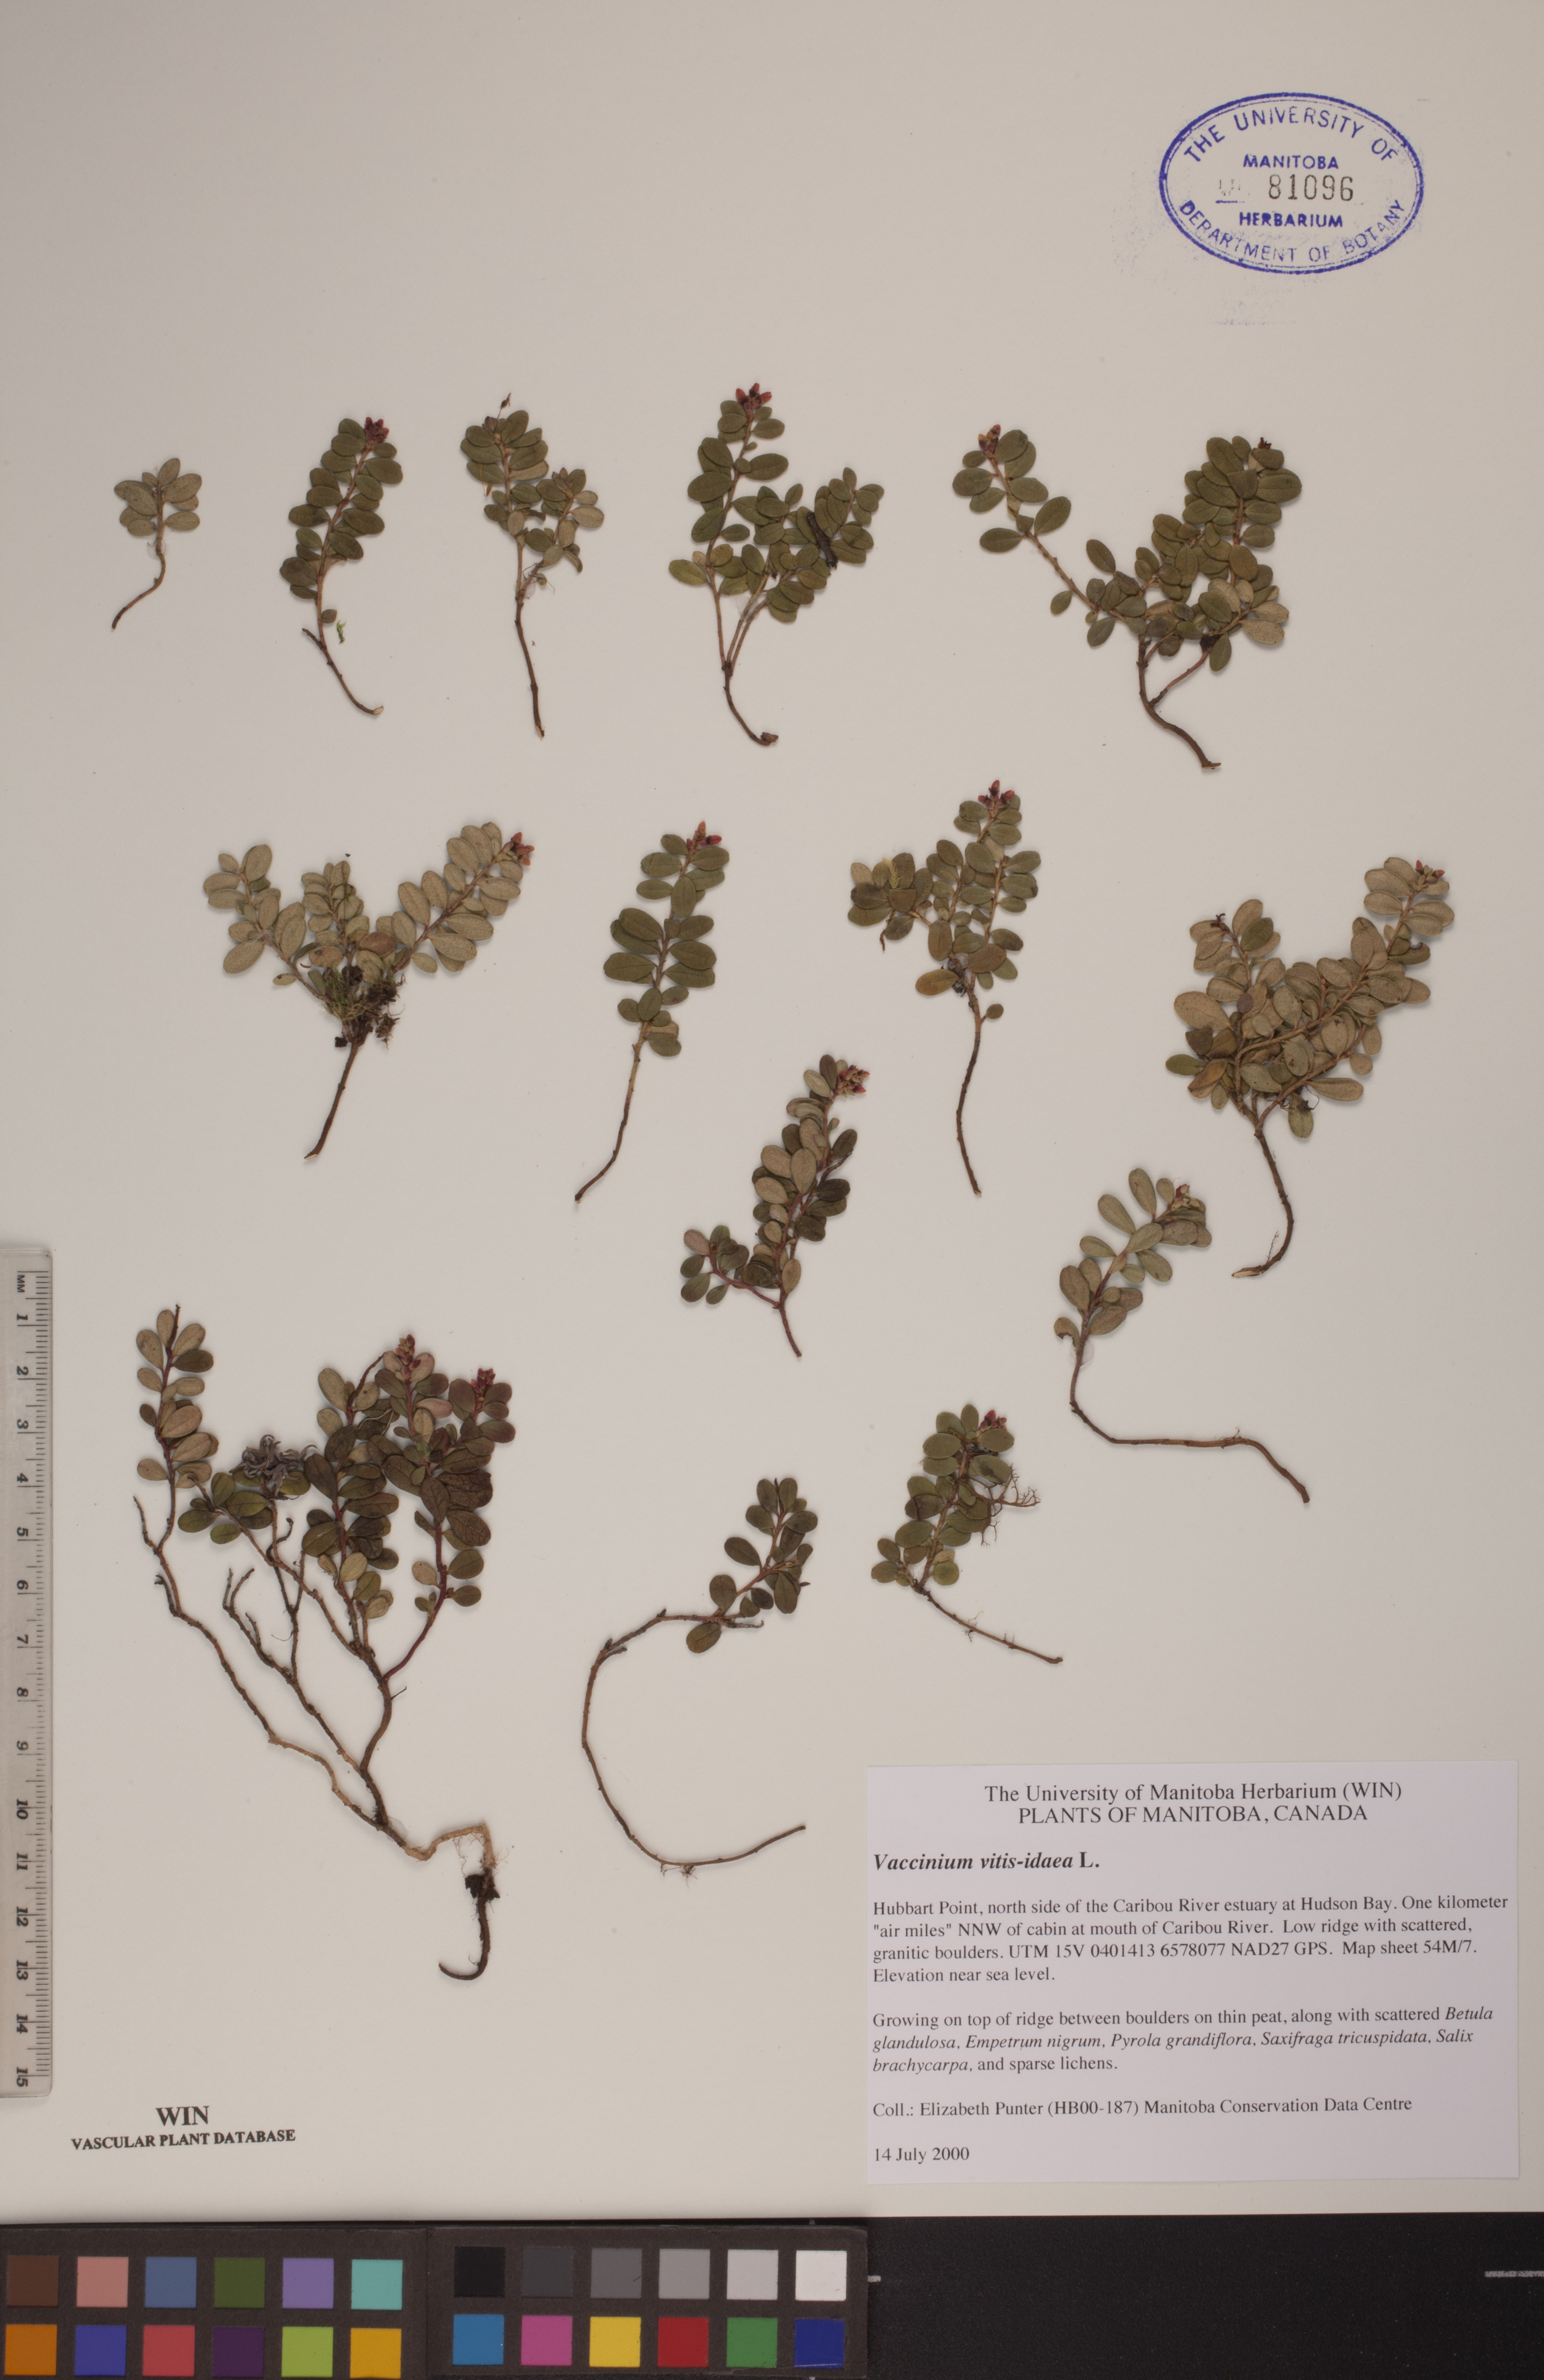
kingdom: Plantae
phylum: Tracheophyta
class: Magnoliopsida
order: Ericales
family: Ericaceae
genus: Vaccinium
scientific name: Vaccinium vitis-idaea
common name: Cowberry
